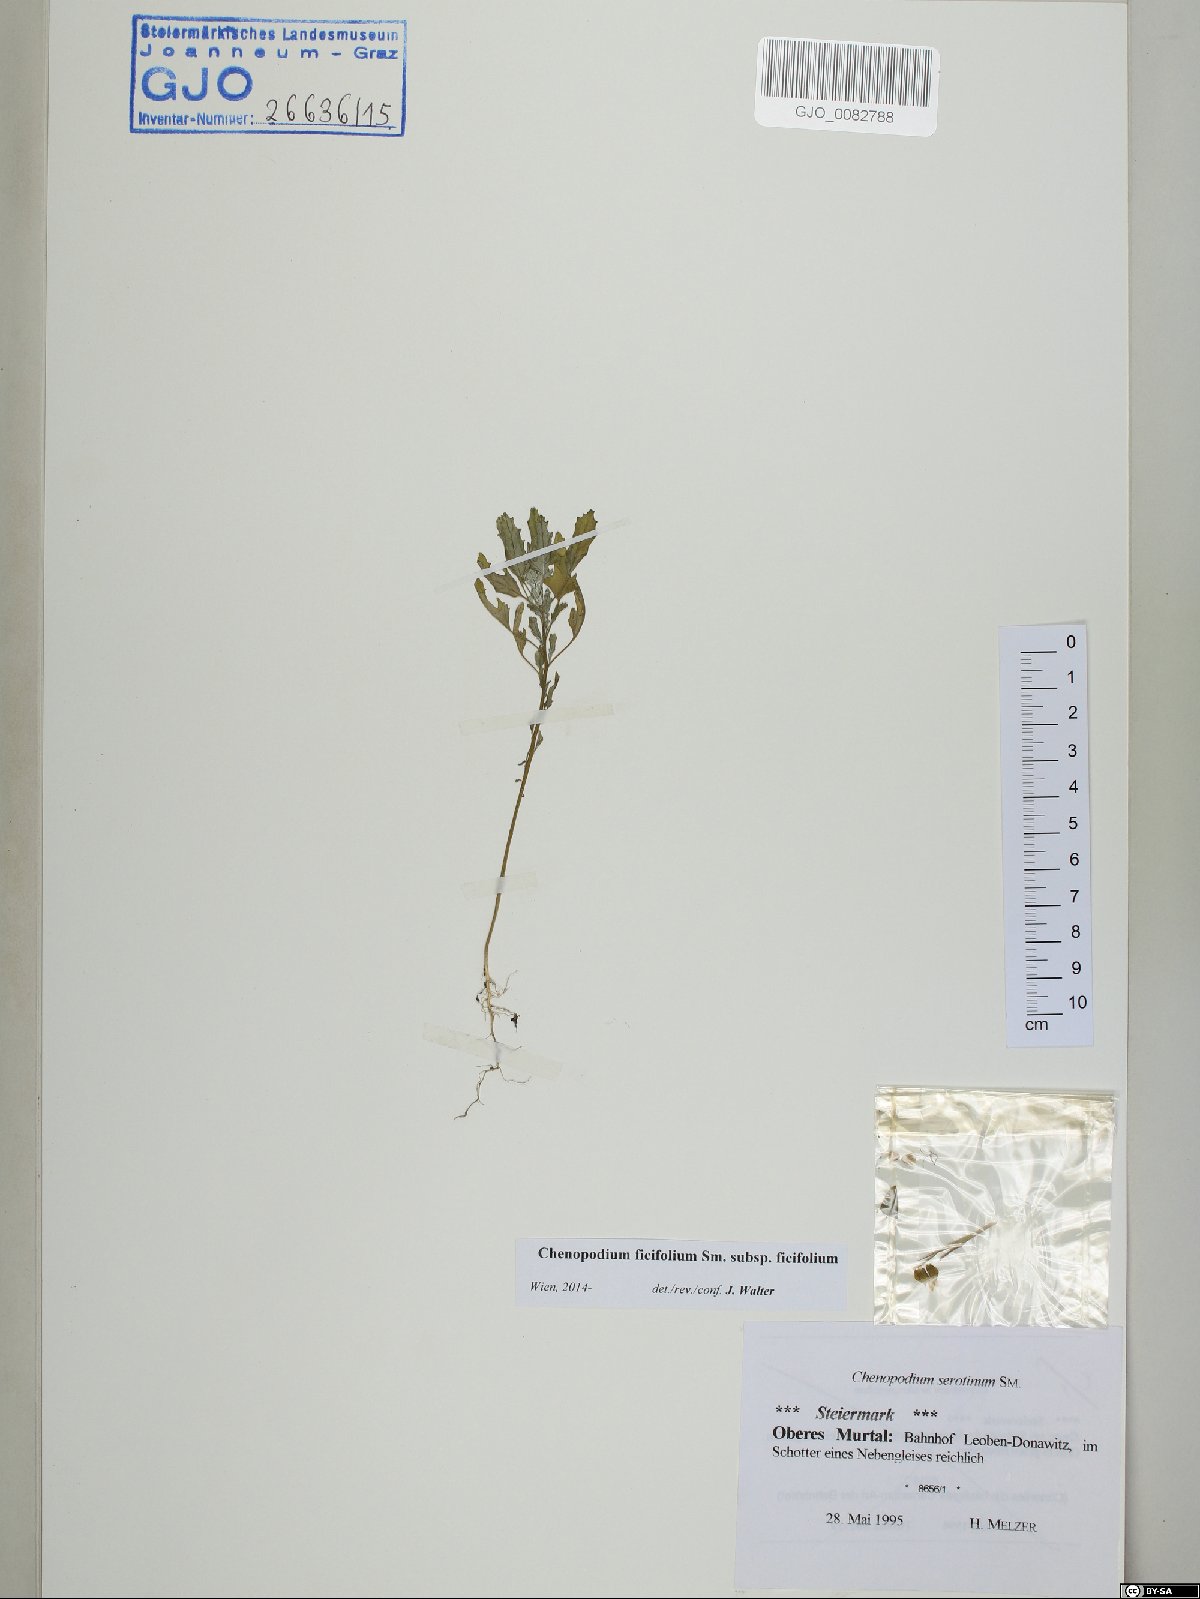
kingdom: Plantae
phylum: Tracheophyta
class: Magnoliopsida
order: Caryophyllales
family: Amaranthaceae
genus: Chenopodium
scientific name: Chenopodium ficifolium
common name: Fig-leaved goosefoot
